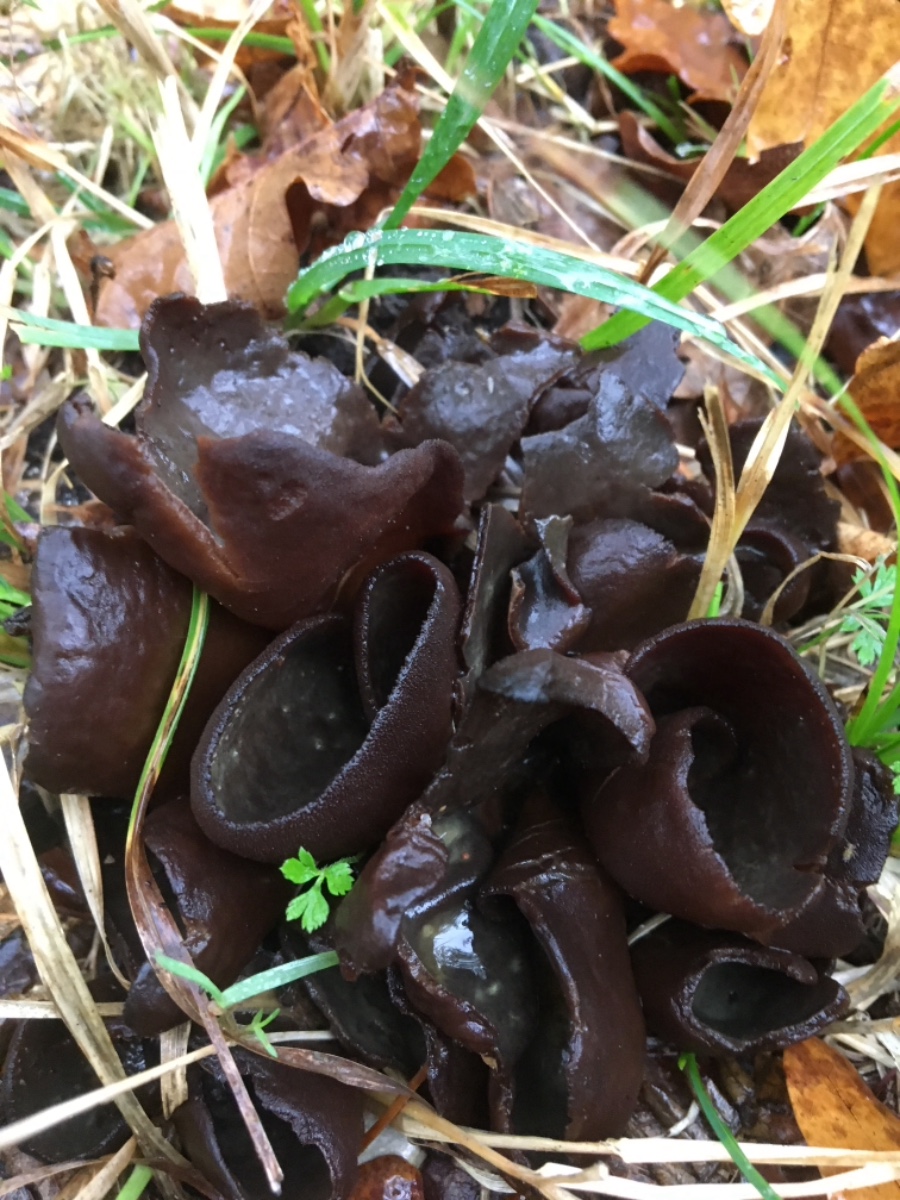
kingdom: Fungi
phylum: Ascomycota
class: Pezizomycetes
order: Pezizales
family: Otideaceae
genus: Otidea
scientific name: Otidea bufonia
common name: brun ørebæger
